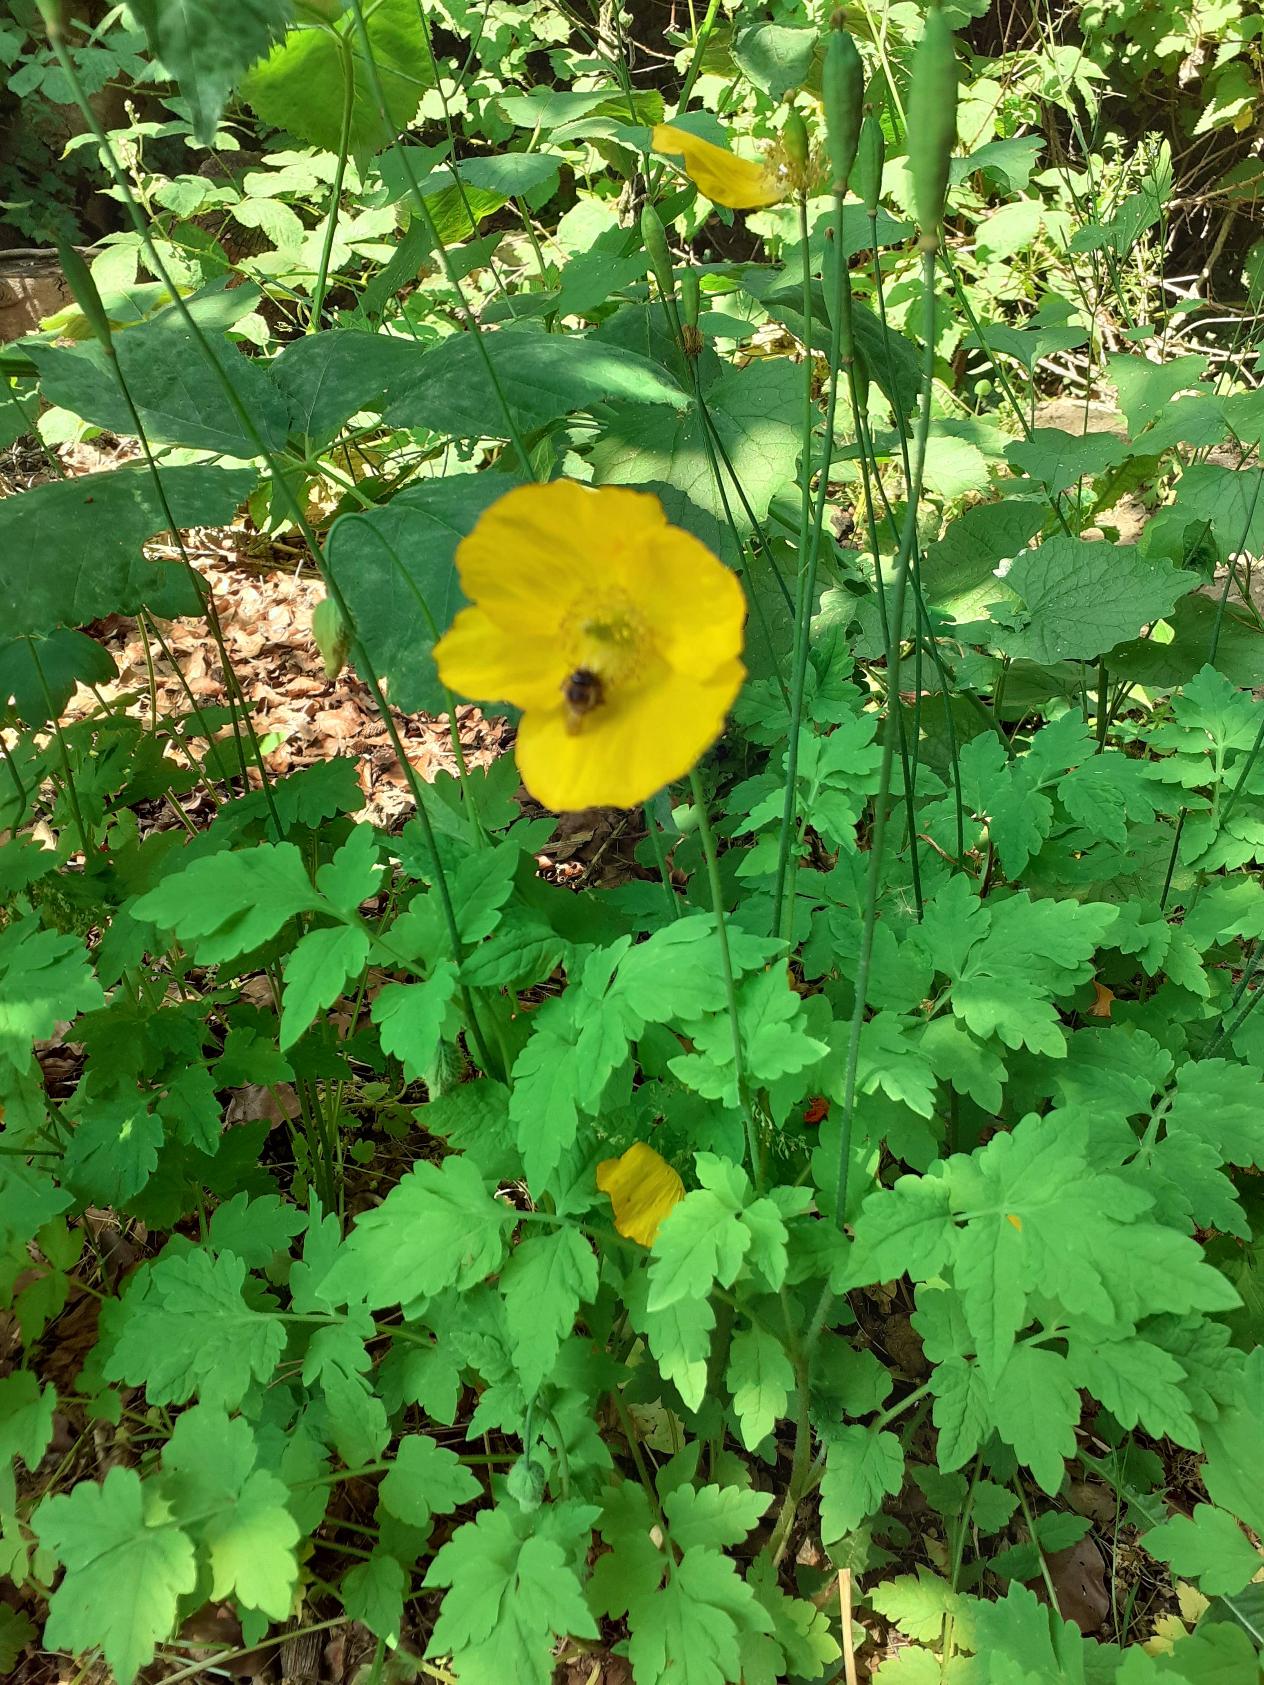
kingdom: Plantae
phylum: Tracheophyta
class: Magnoliopsida
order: Ranunculales
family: Papaveraceae
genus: Papaver
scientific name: Papaver cambricum
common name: Skov-valmue
